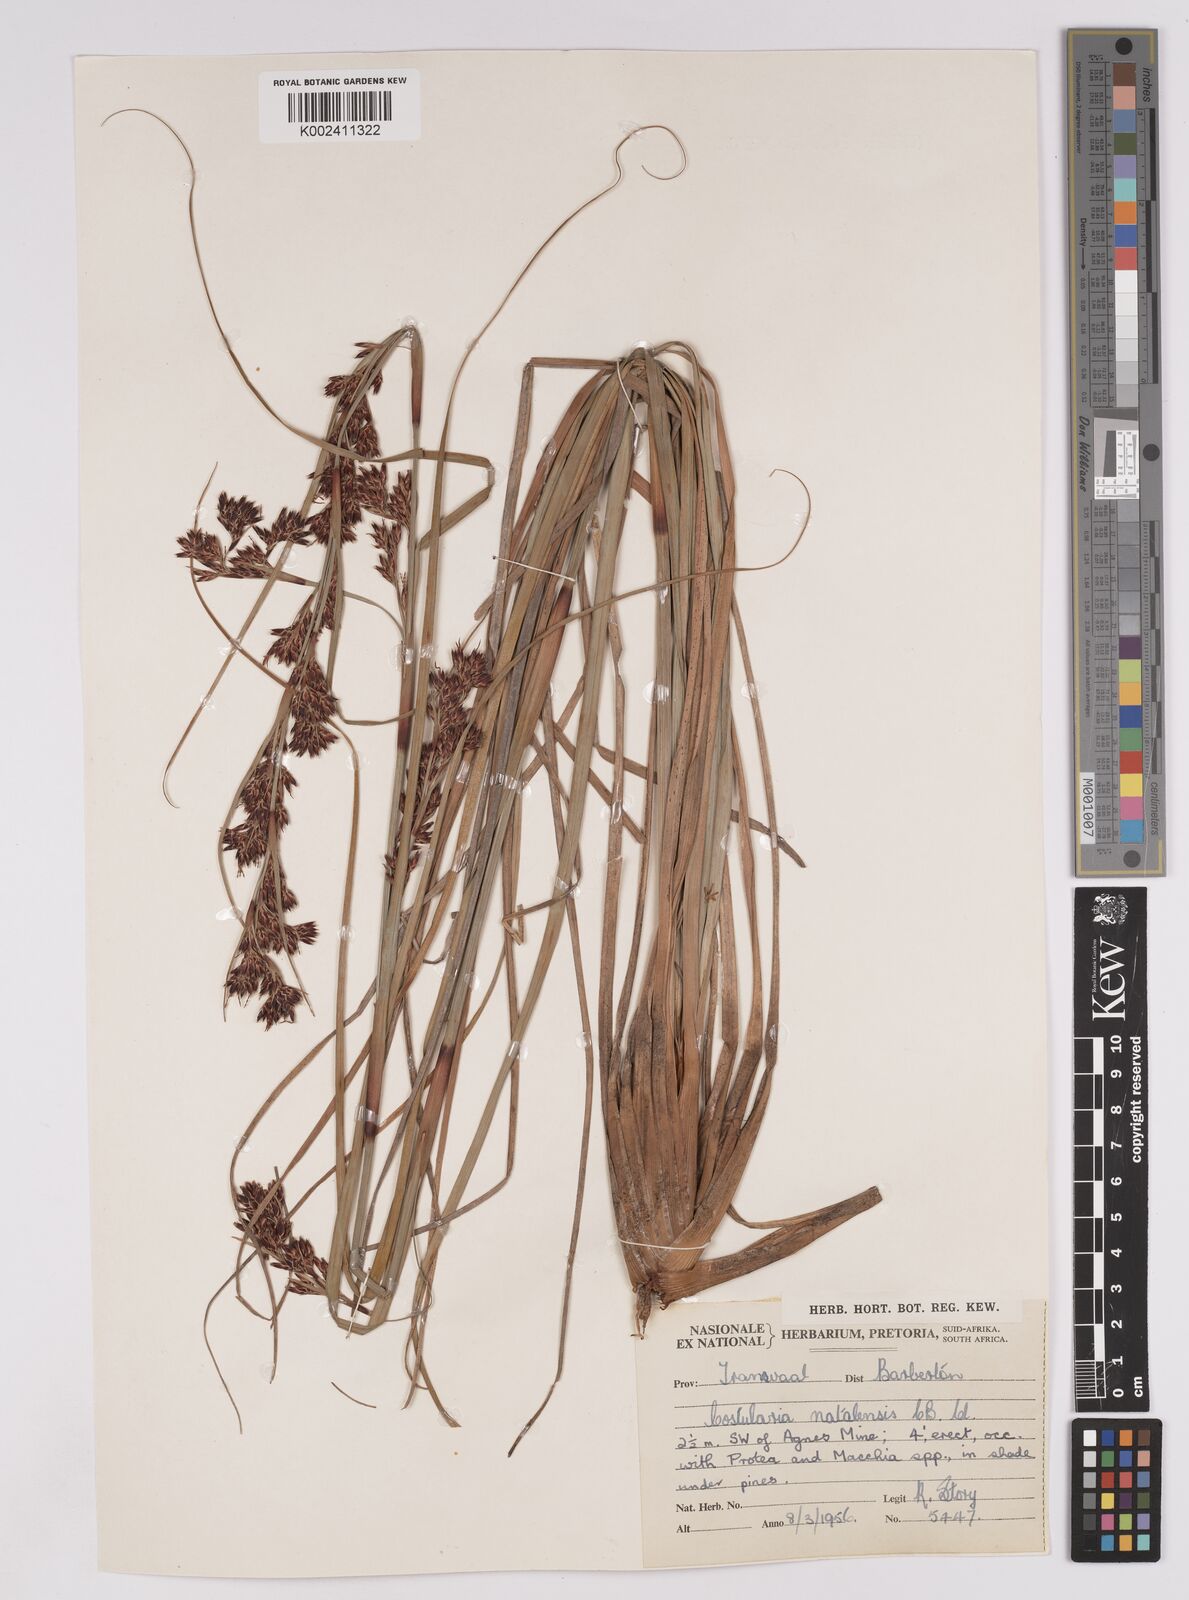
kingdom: Plantae
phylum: Tracheophyta
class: Liliopsida
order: Poales
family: Cyperaceae
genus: Costularia
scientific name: Costularia natalensis
